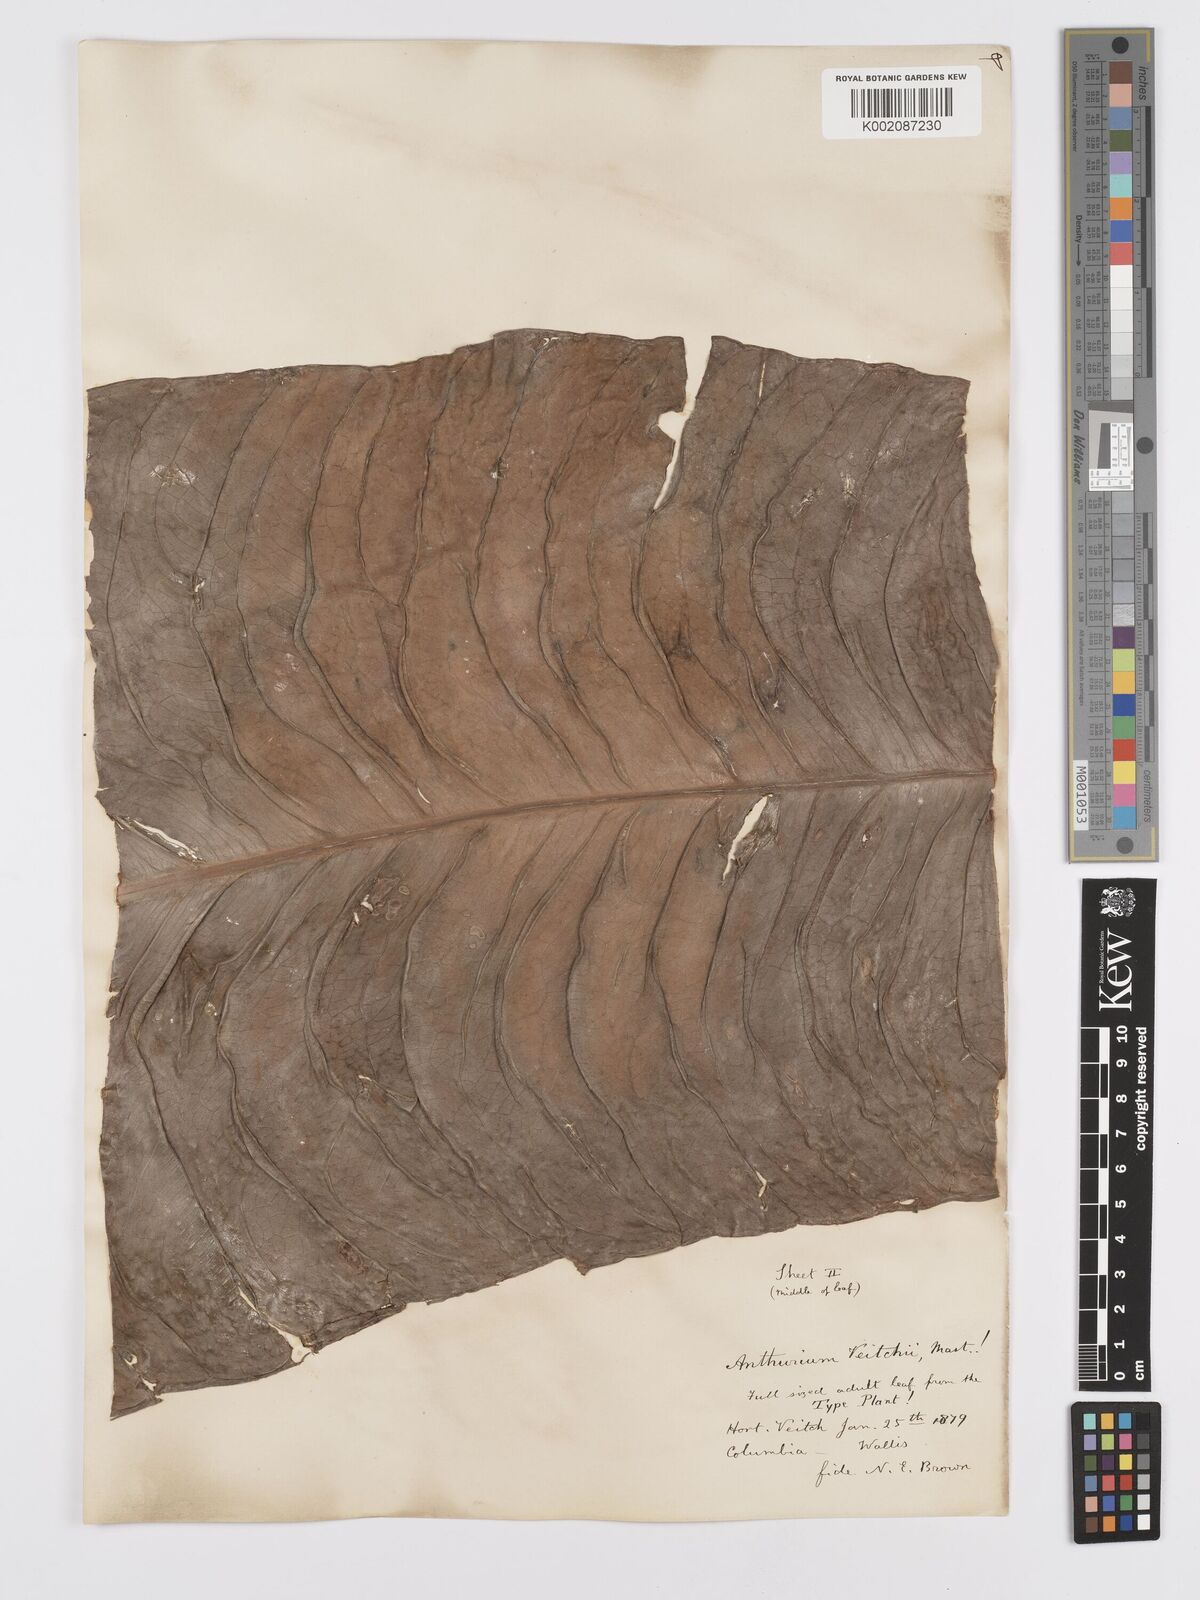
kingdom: Plantae
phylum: Tracheophyta
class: Liliopsida
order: Alismatales
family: Araceae
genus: Anthurium
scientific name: Anthurium veitchii
